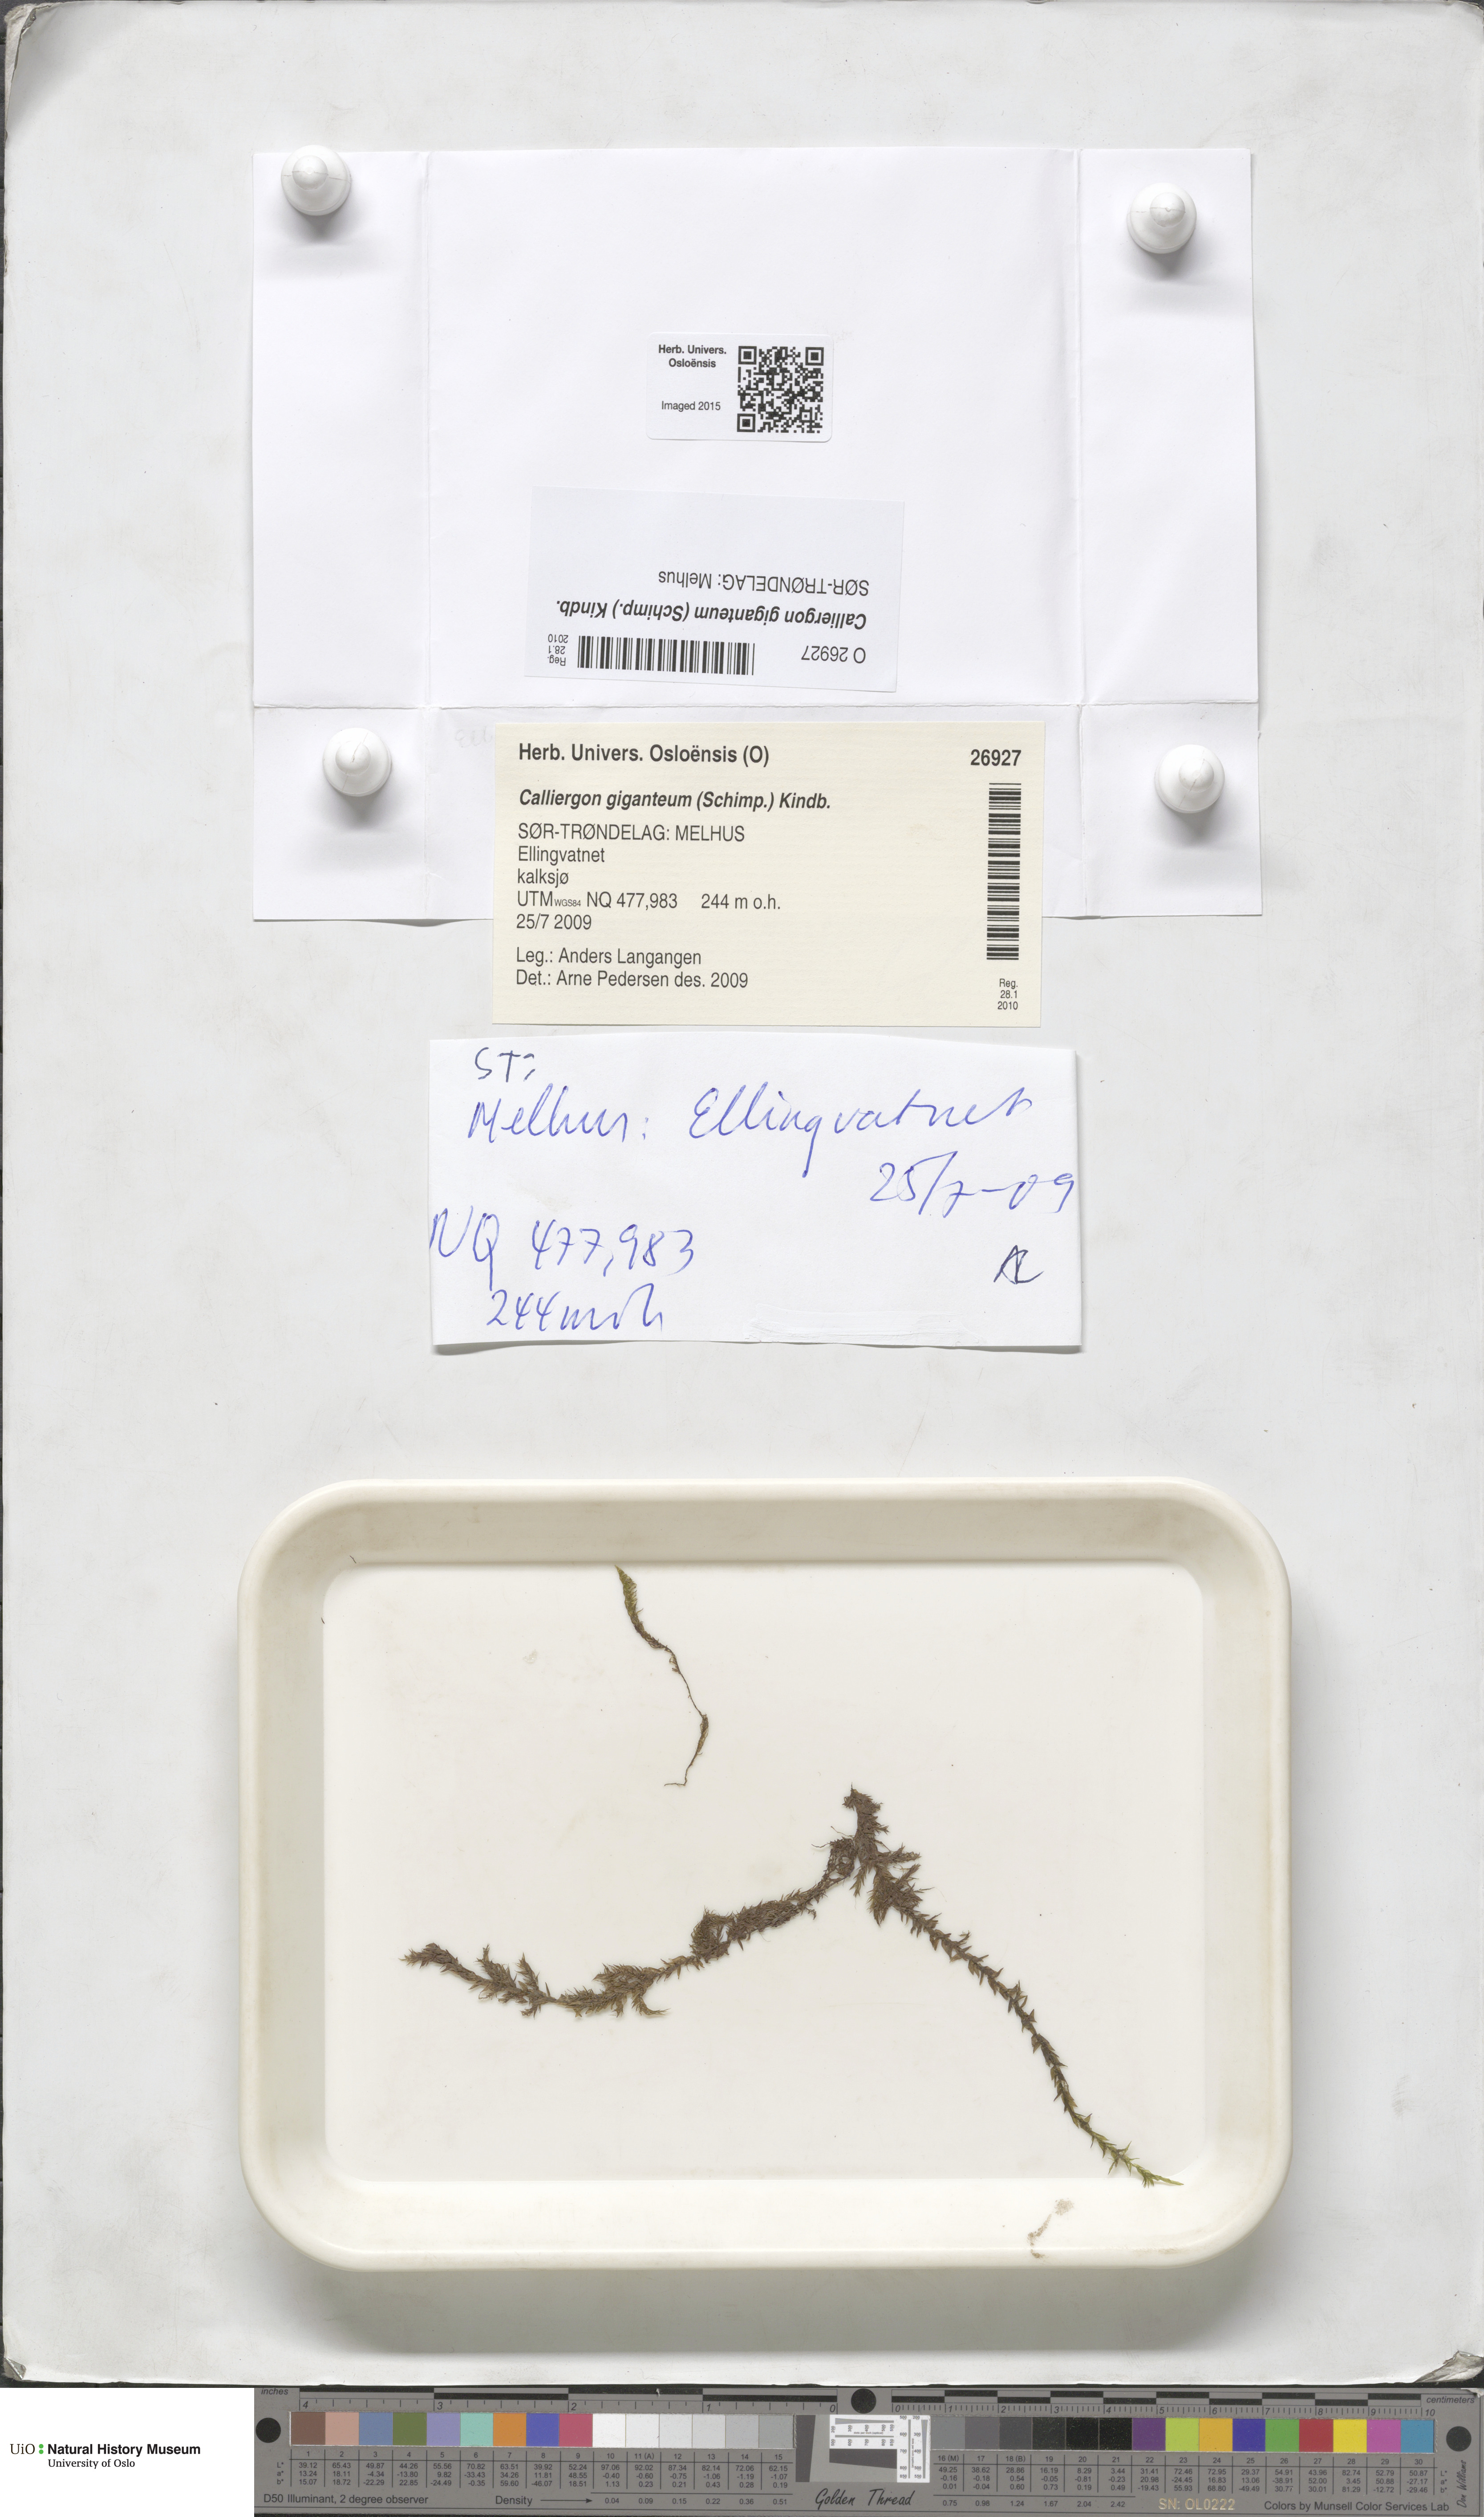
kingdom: Plantae
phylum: Bryophyta
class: Bryopsida
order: Hypnales
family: Calliergonaceae
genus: Calliergon
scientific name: Calliergon giganteum
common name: Giant spear moss
